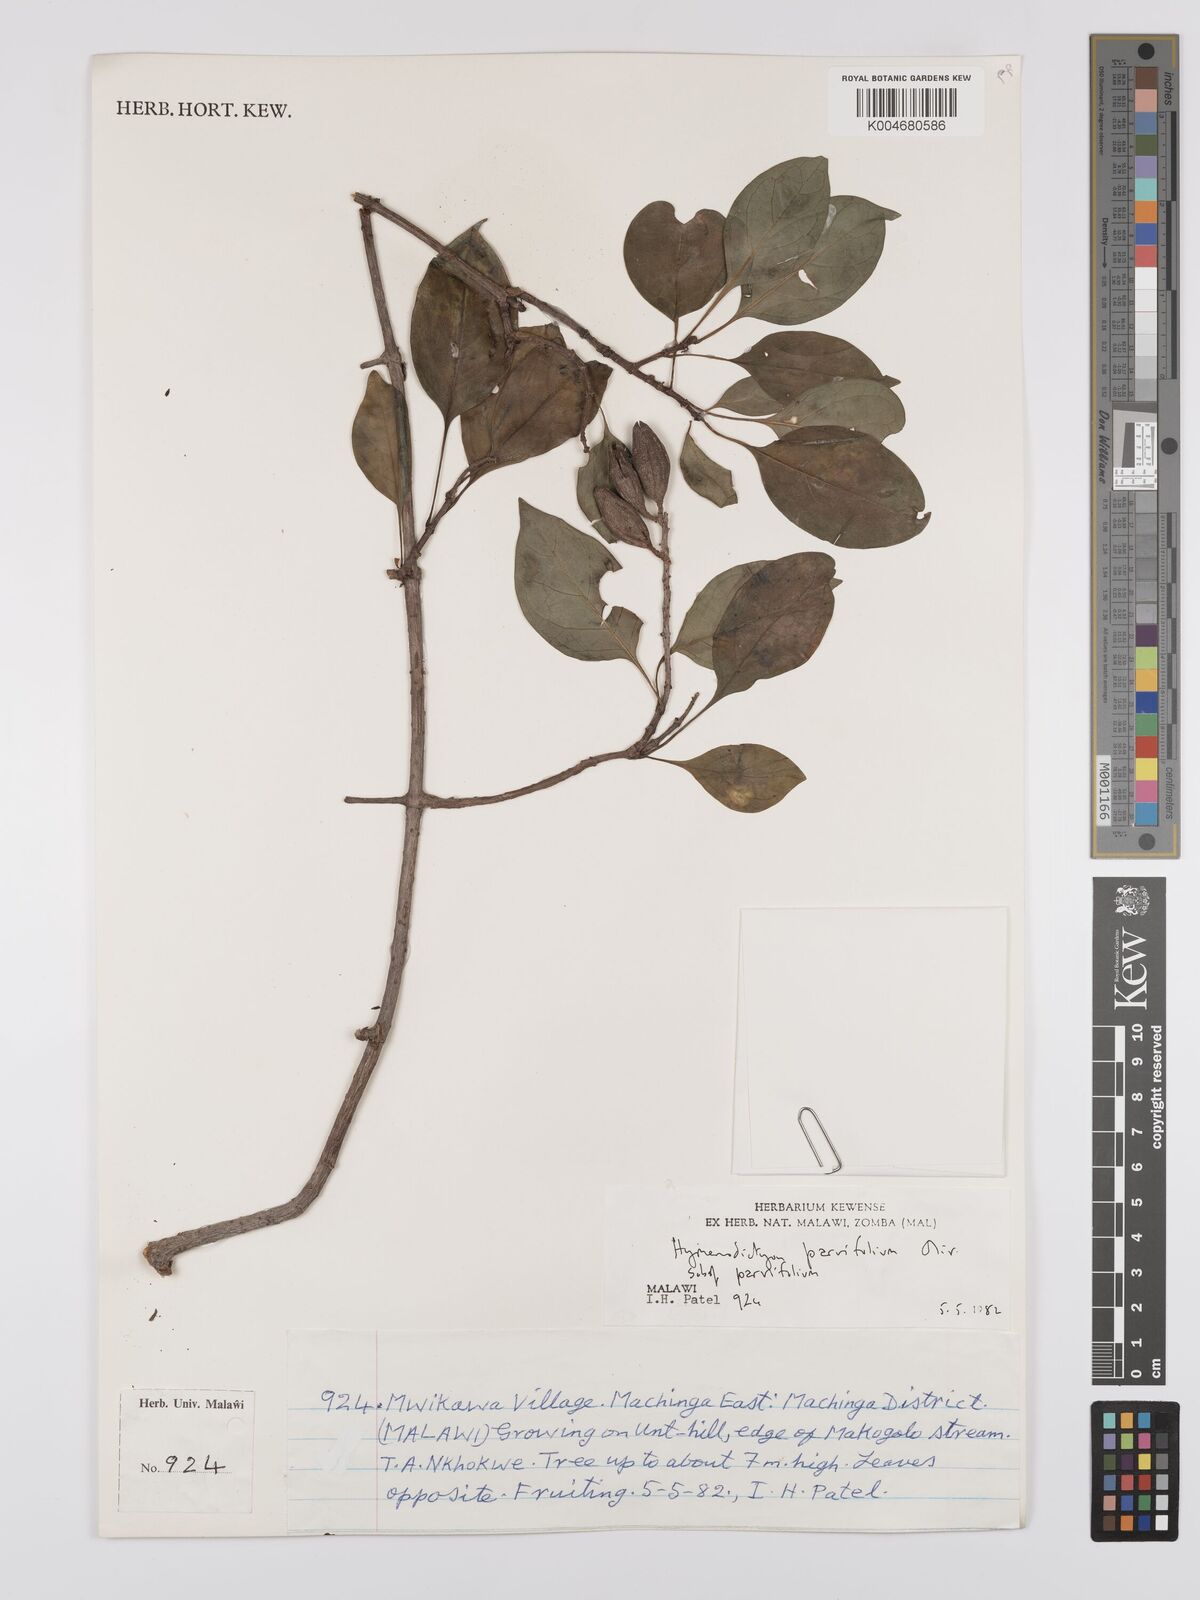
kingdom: Plantae
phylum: Tracheophyta
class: Magnoliopsida
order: Gentianales
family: Rubiaceae
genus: Hymenodictyon
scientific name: Hymenodictyon parvifolium
